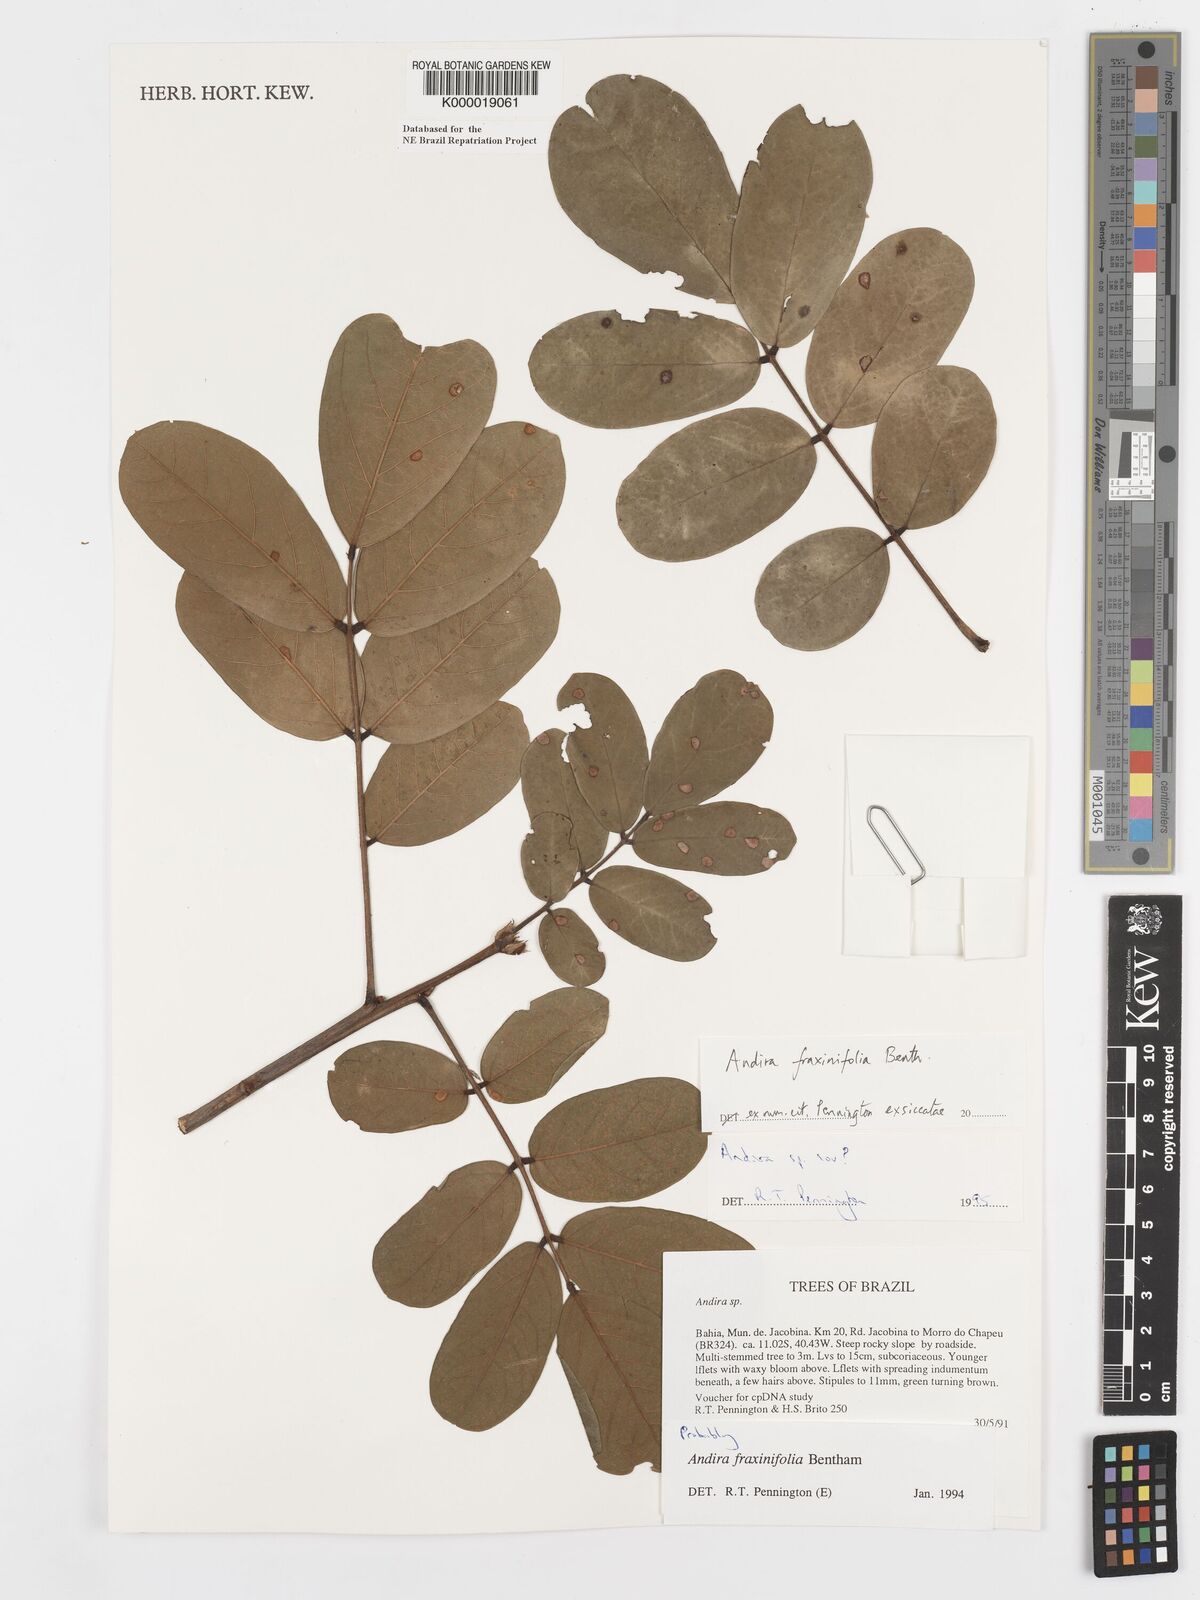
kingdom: Plantae
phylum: Tracheophyta
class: Magnoliopsida
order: Fabales
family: Fabaceae
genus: Andira
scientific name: Andira fraxinifolia
